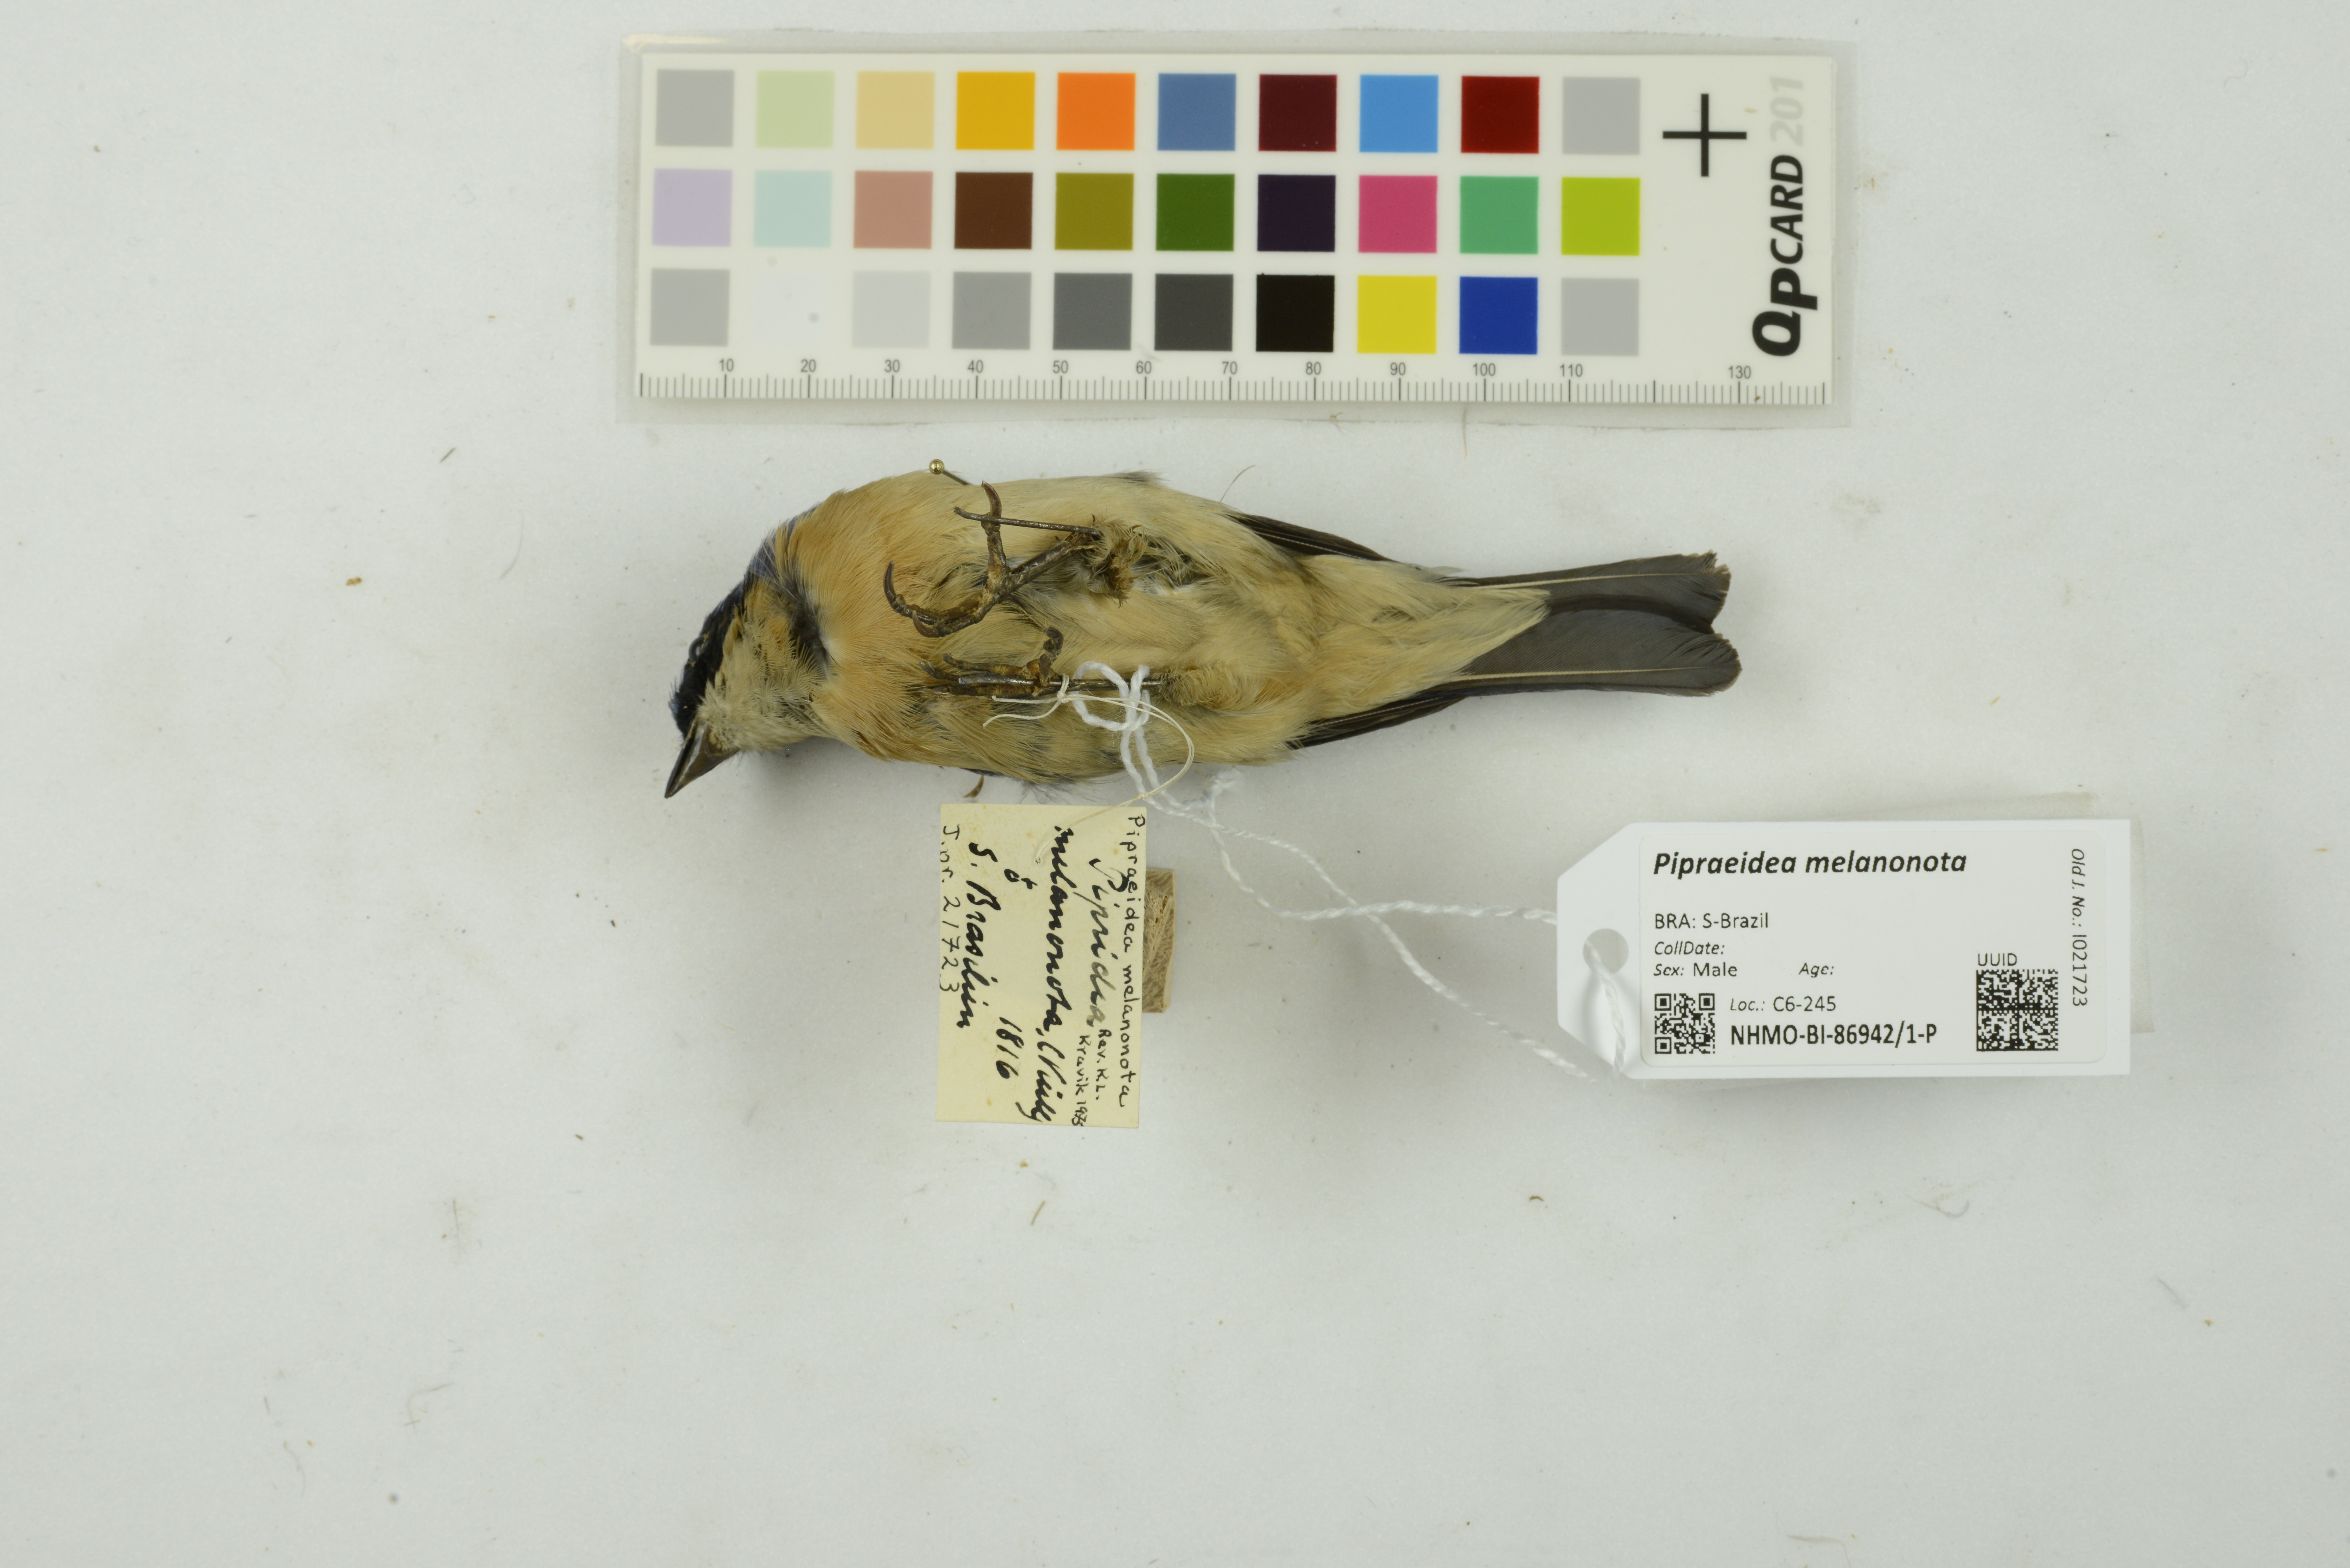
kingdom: Animalia
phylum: Chordata
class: Aves
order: Passeriformes
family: Thraupidae
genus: Pipraeidea
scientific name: Pipraeidea melanonota
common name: Fawn-breasted tanager
